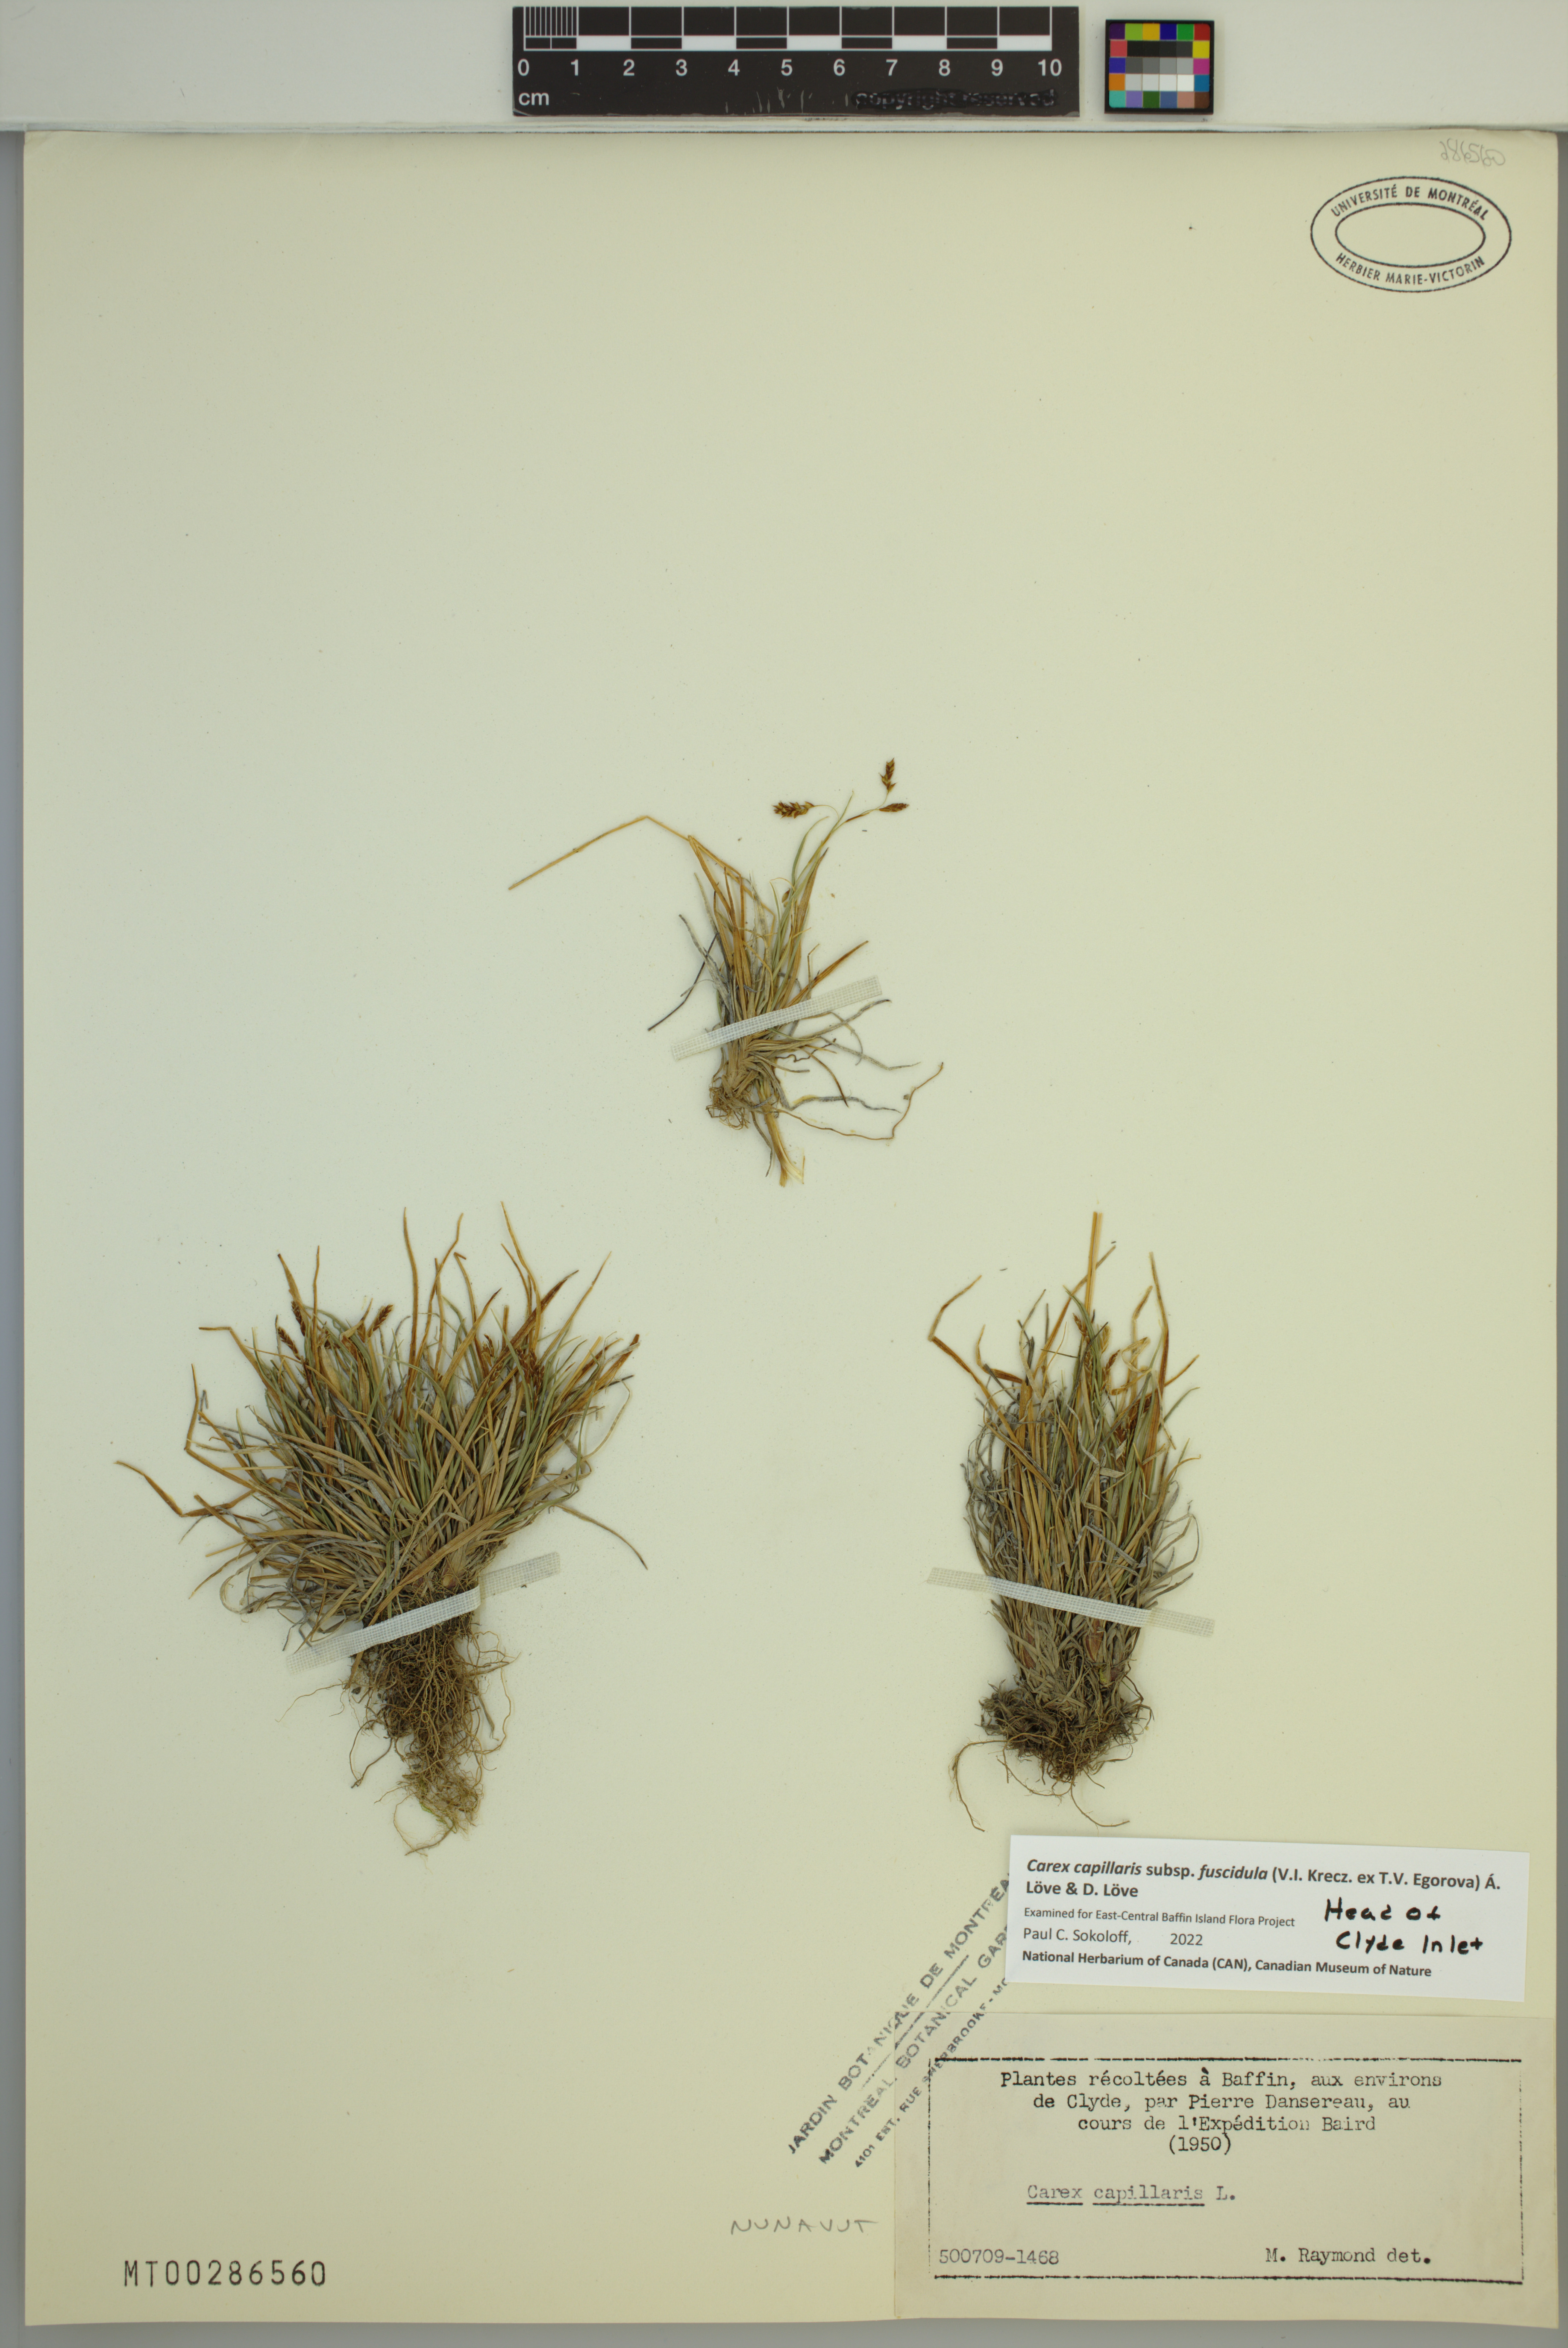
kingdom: Plantae
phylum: Tracheophyta
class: Liliopsida
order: Poales
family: Cyperaceae
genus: Carex
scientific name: Carex capillaris
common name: Hair sedge
